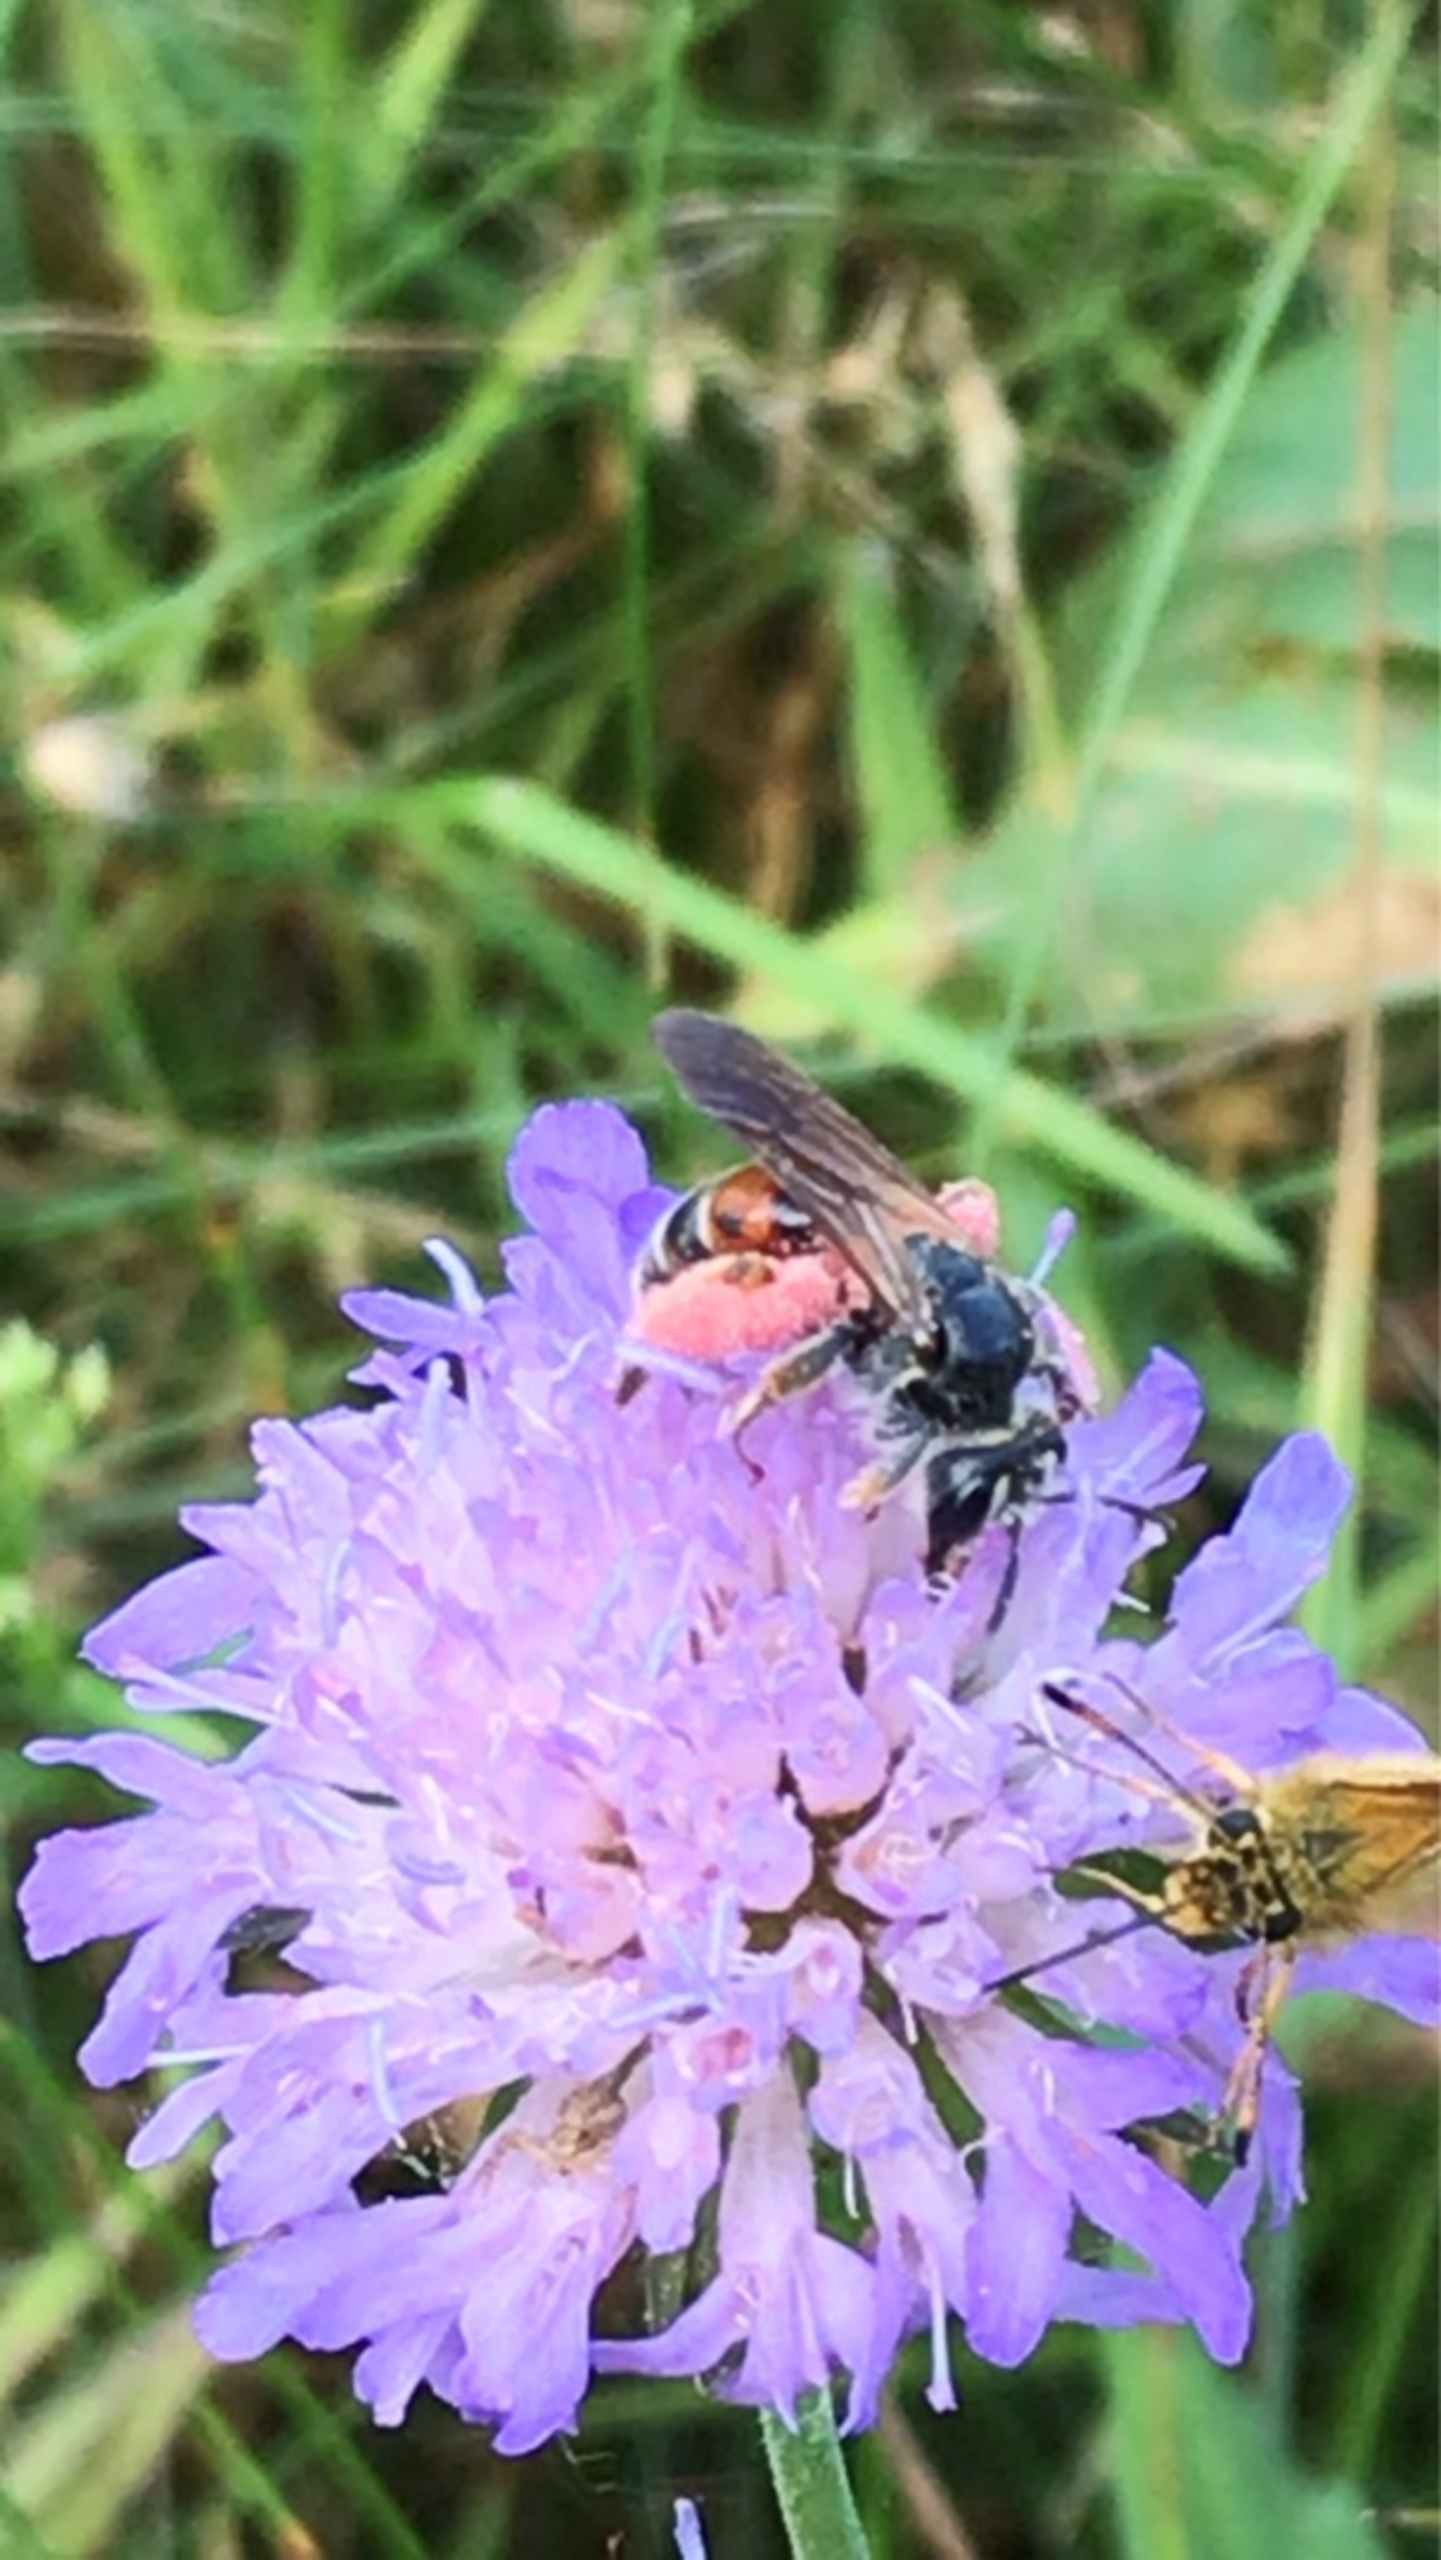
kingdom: Animalia
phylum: Arthropoda
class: Insecta
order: Hymenoptera
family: Andrenidae
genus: Andrena
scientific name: Andrena hattorfiana
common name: Blåhatjordbi
